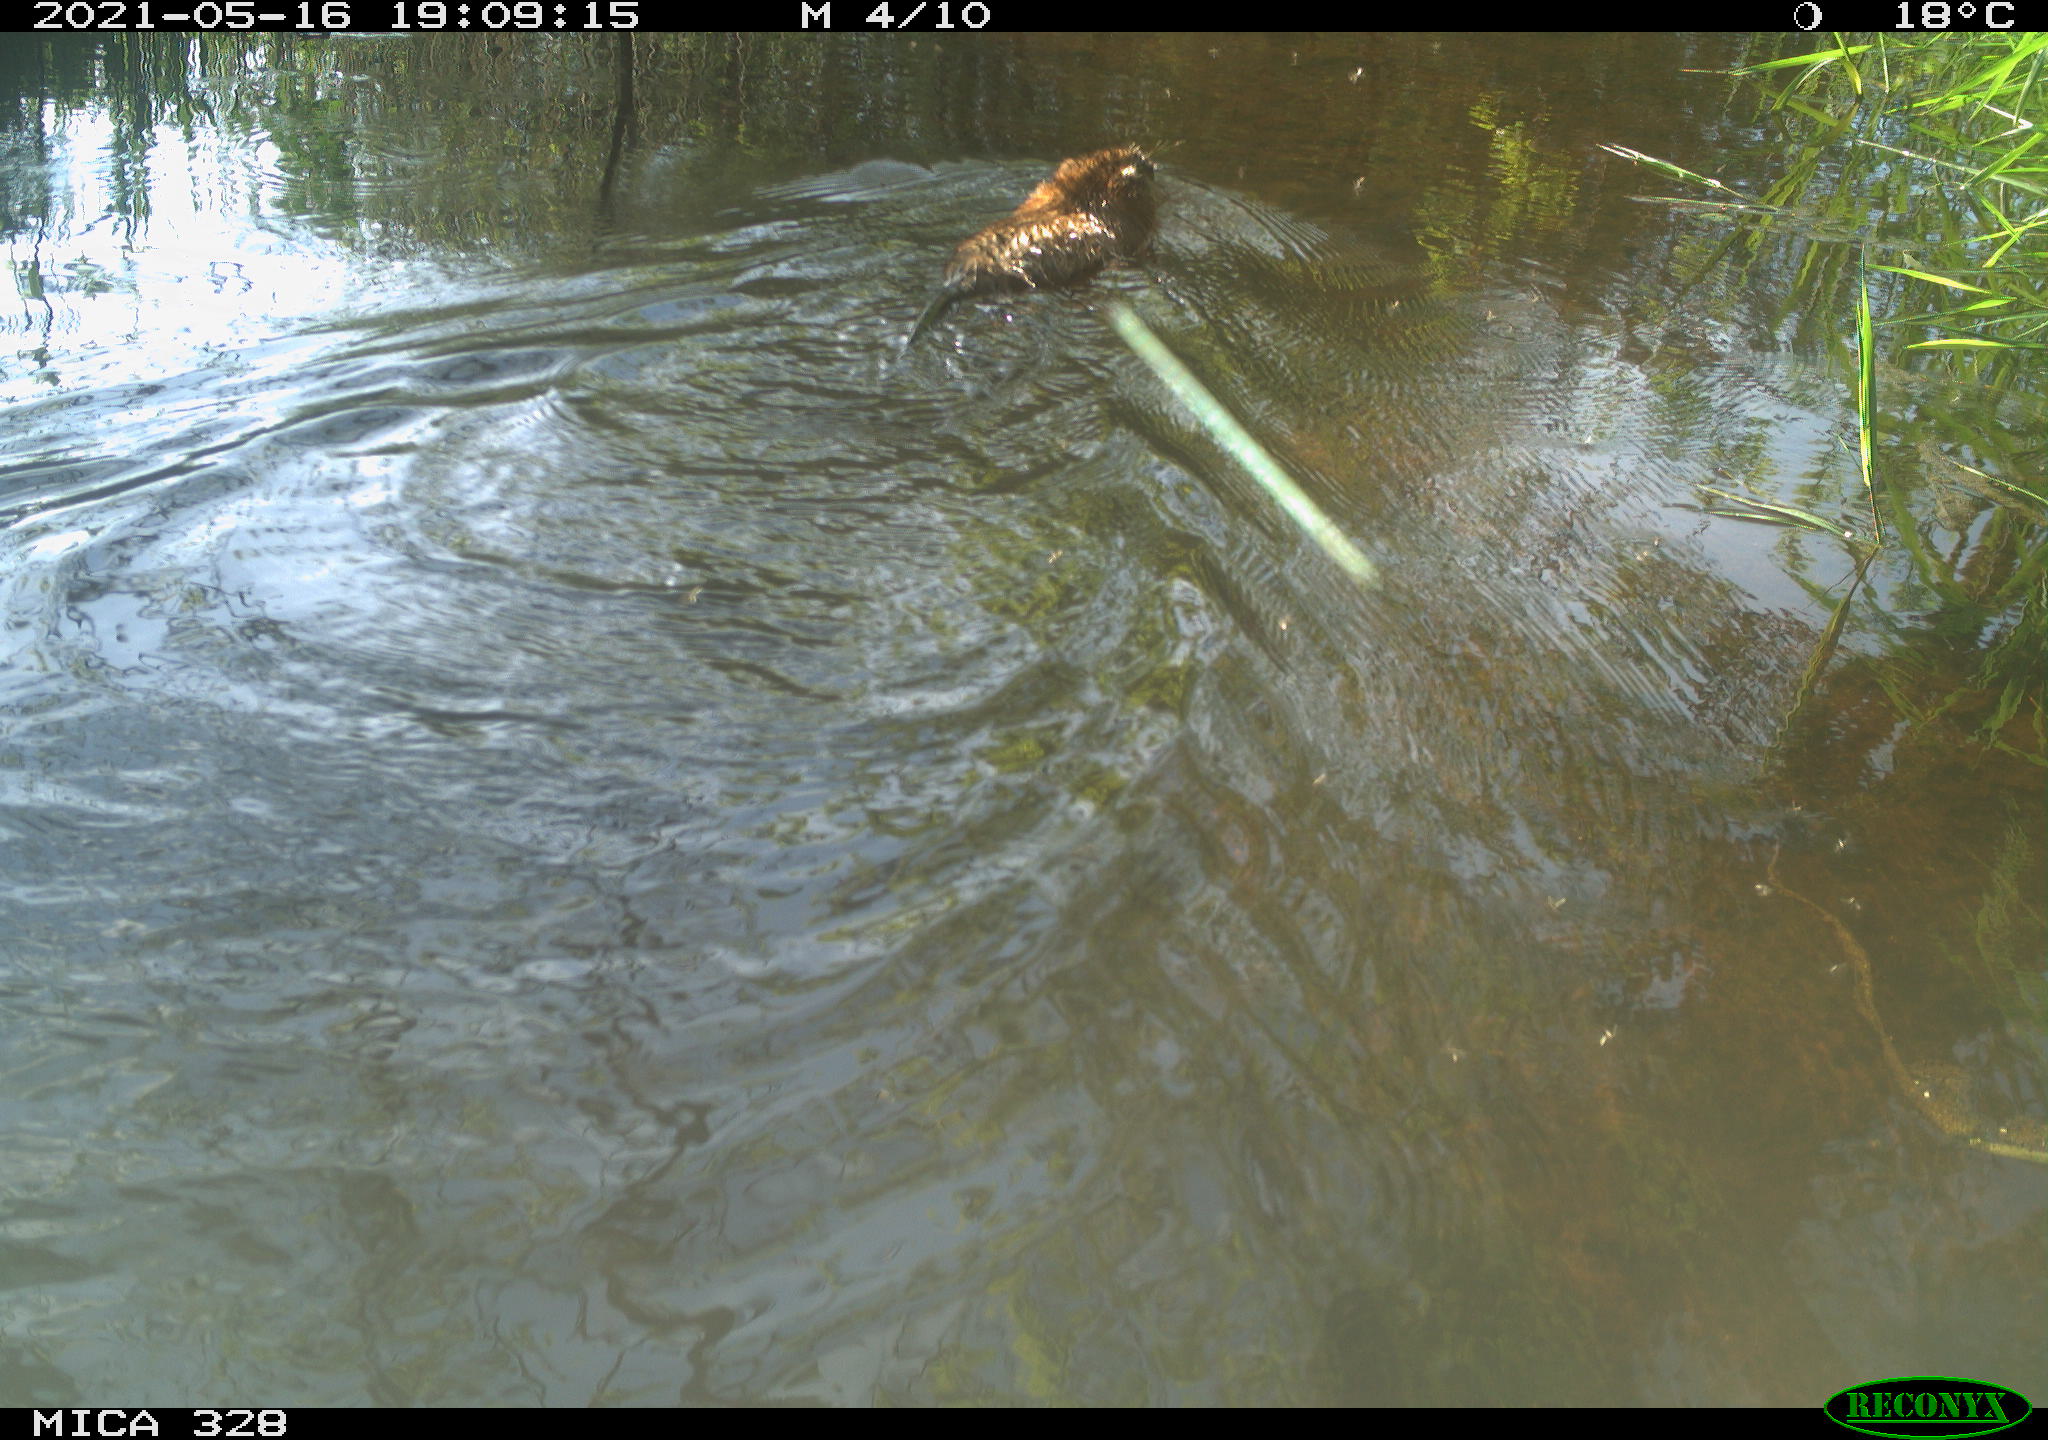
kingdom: Animalia
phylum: Chordata
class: Mammalia
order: Rodentia
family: Cricetidae
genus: Ondatra
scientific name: Ondatra zibethicus
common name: Muskrat
